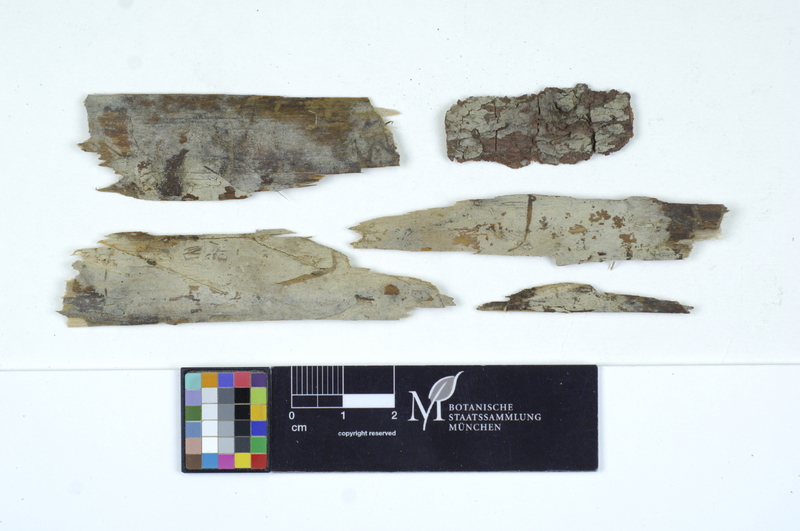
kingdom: Plantae
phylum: Tracheophyta
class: Pinopsida
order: Pinales
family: Pinaceae
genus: Picea
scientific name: Picea
